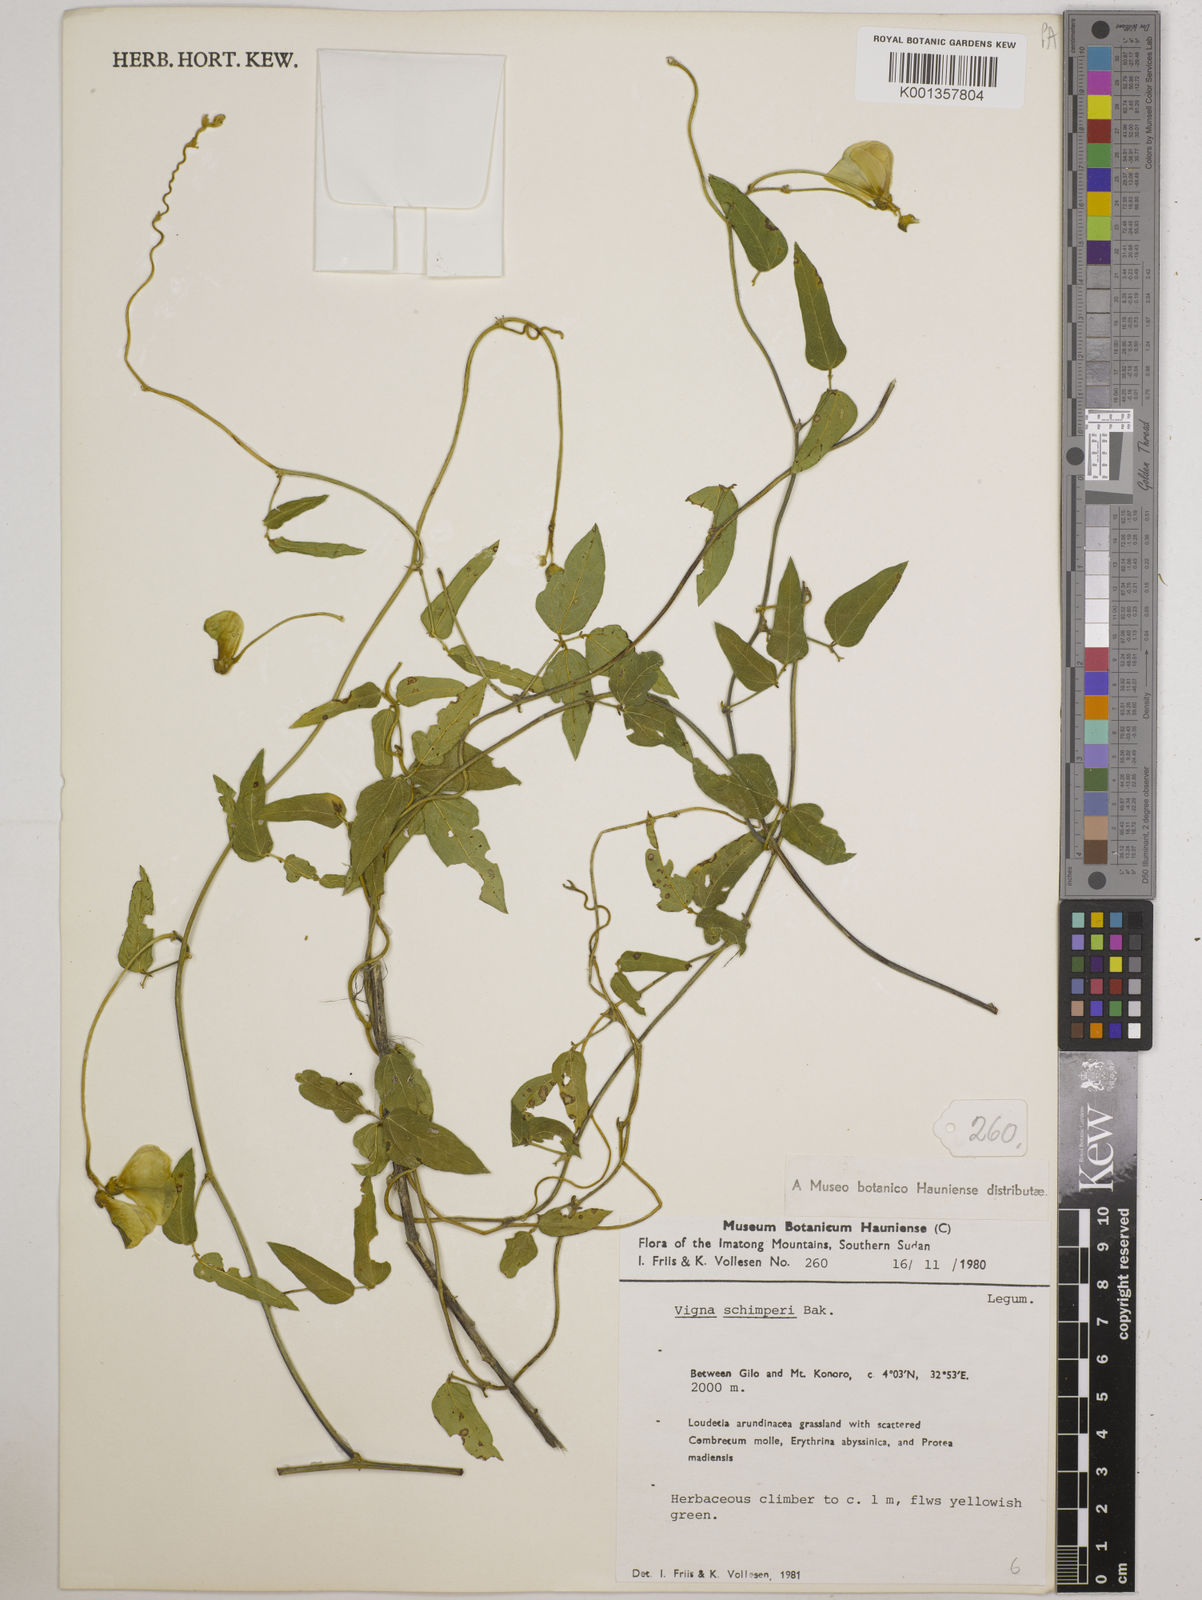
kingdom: Plantae
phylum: Tracheophyta
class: Magnoliopsida
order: Fabales
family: Fabaceae
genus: Vigna
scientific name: Vigna schimperi
